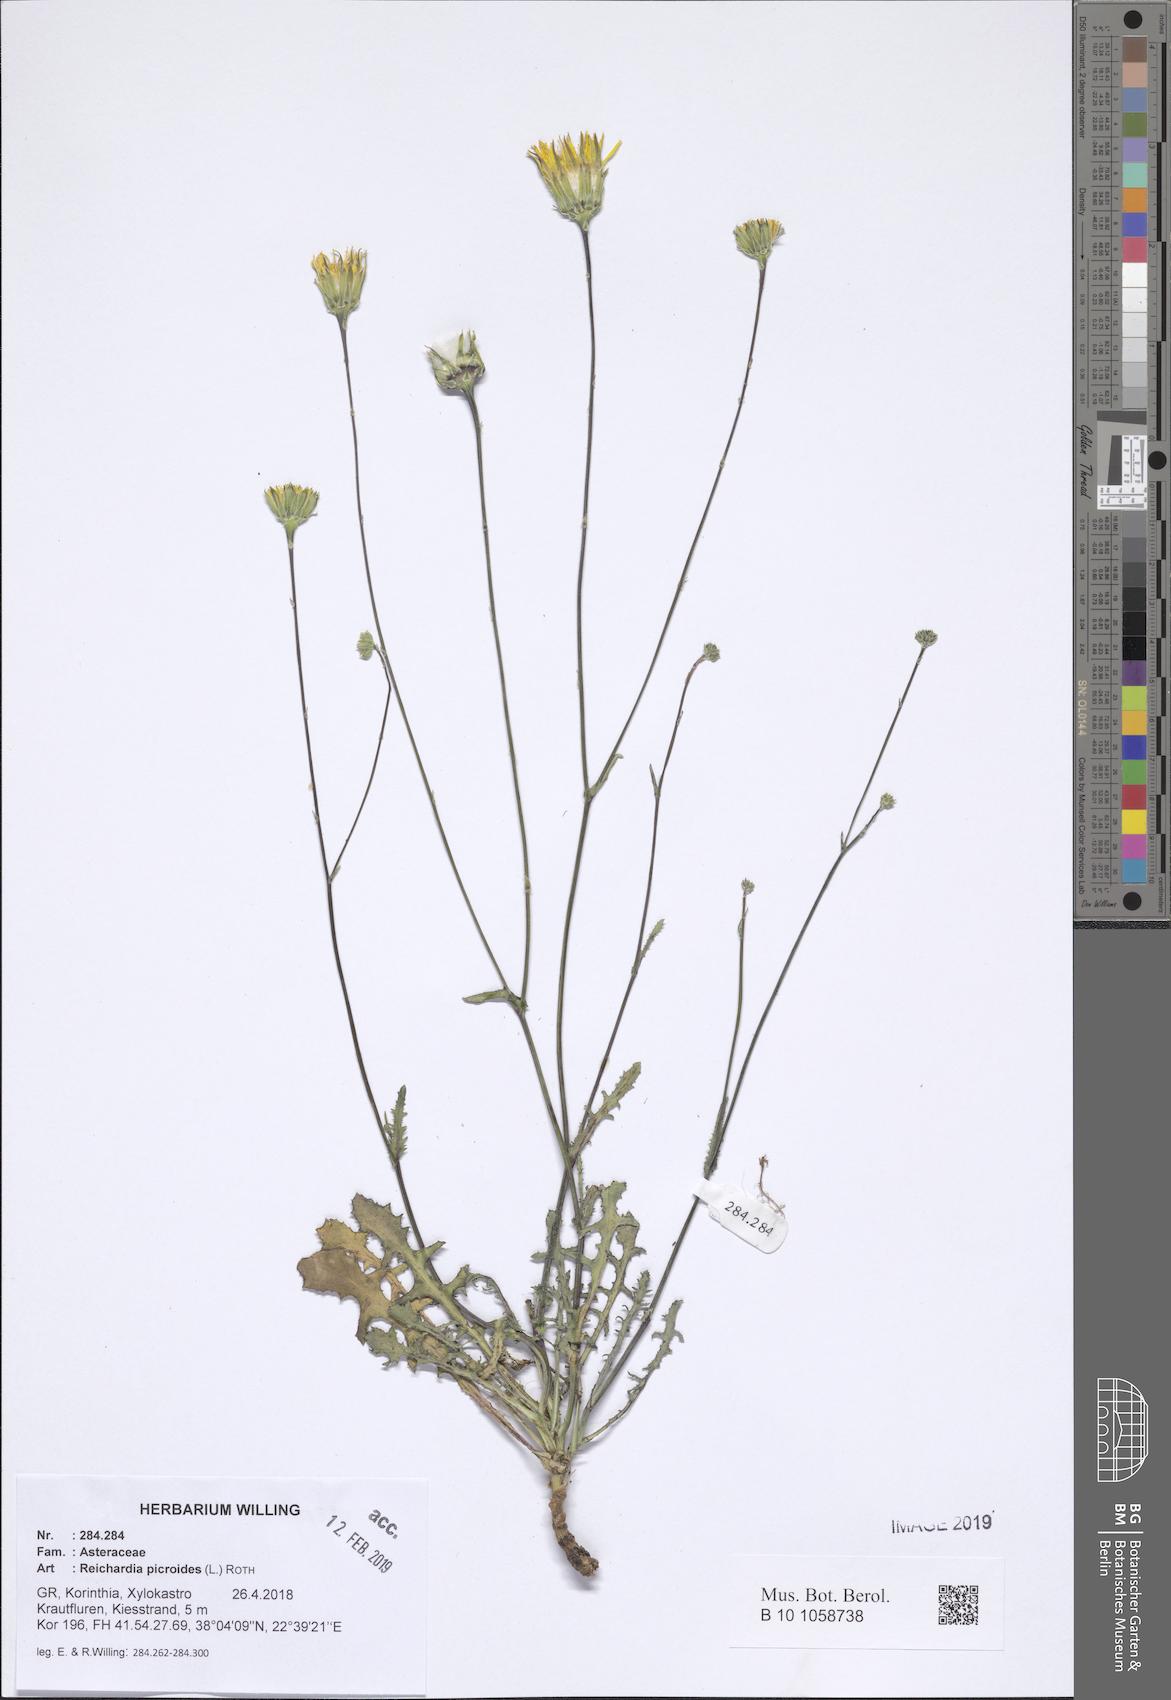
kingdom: Plantae
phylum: Tracheophyta
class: Magnoliopsida
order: Asterales
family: Asteraceae
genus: Reichardia
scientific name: Reichardia picroides
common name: Common brighteyes
